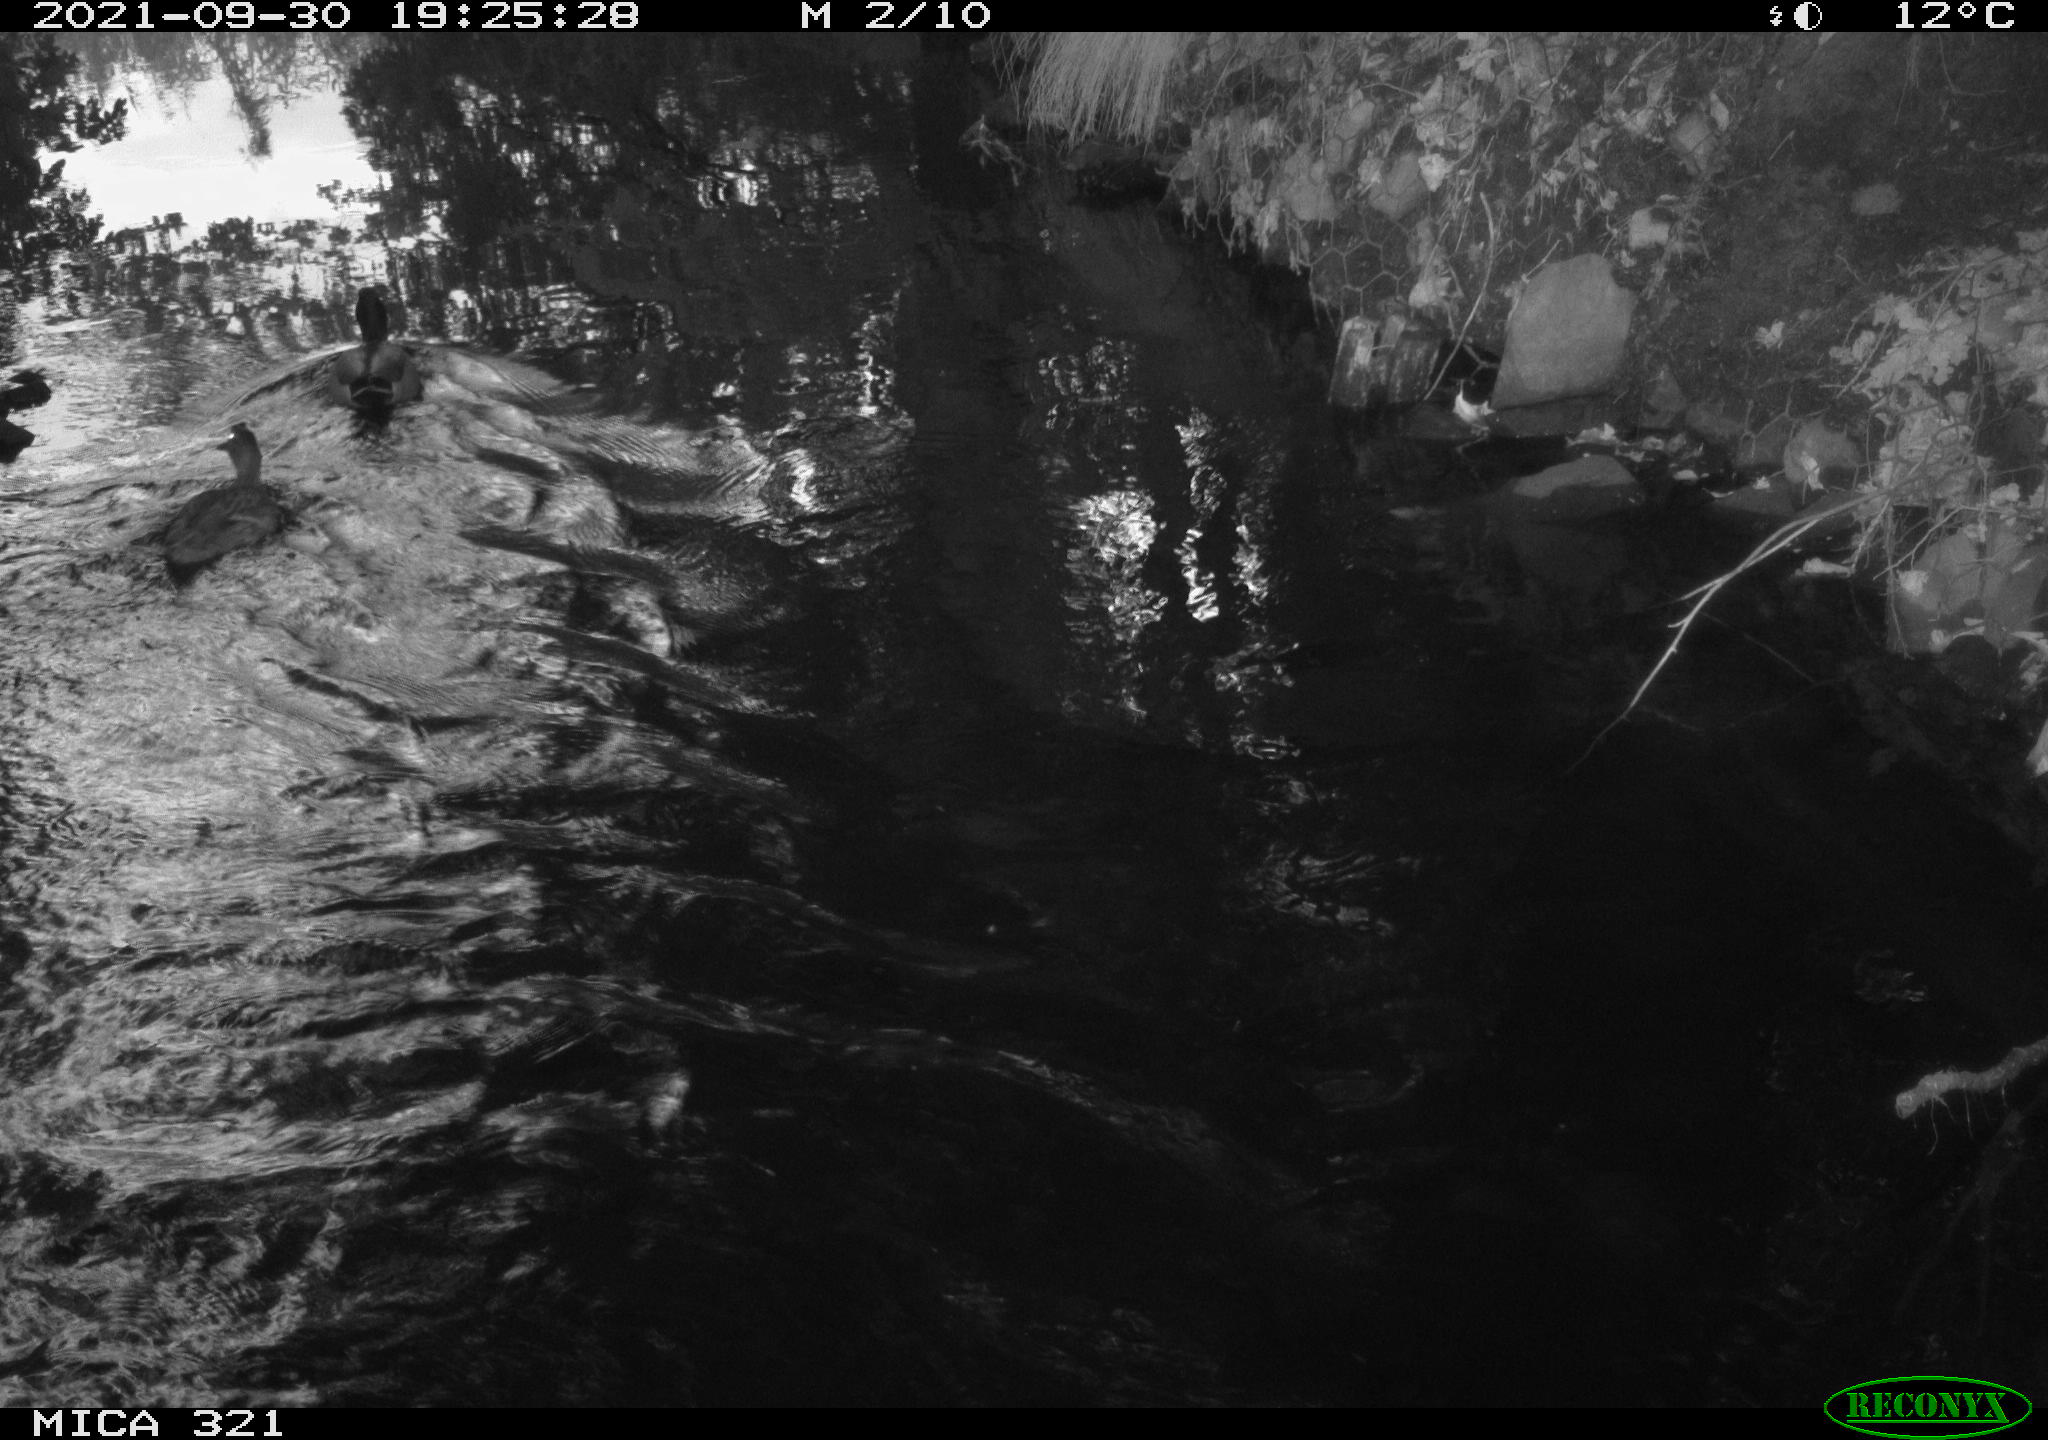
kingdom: Animalia
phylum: Chordata
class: Aves
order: Anseriformes
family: Anatidae
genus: Anas
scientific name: Anas platyrhynchos
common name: Mallard
